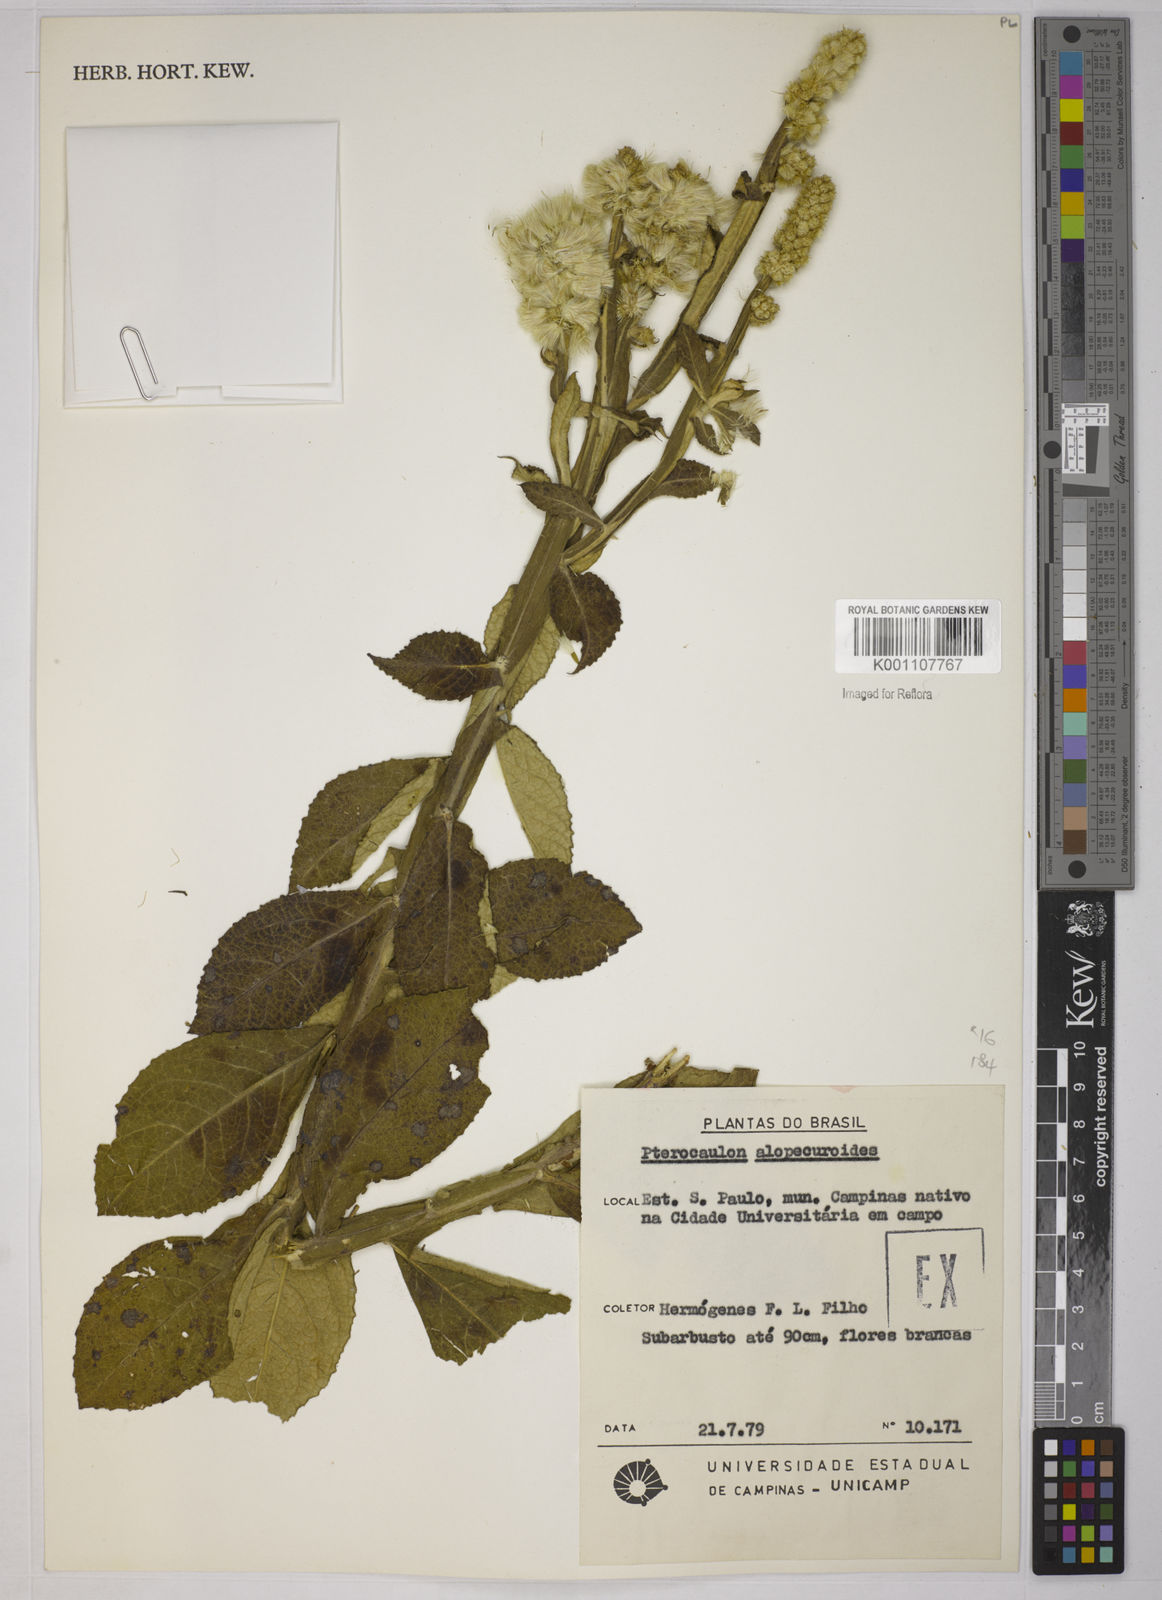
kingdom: Plantae
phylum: Tracheophyta
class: Magnoliopsida
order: Asterales
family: Asteraceae
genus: Pterocaulon
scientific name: Pterocaulon alopecuroides
